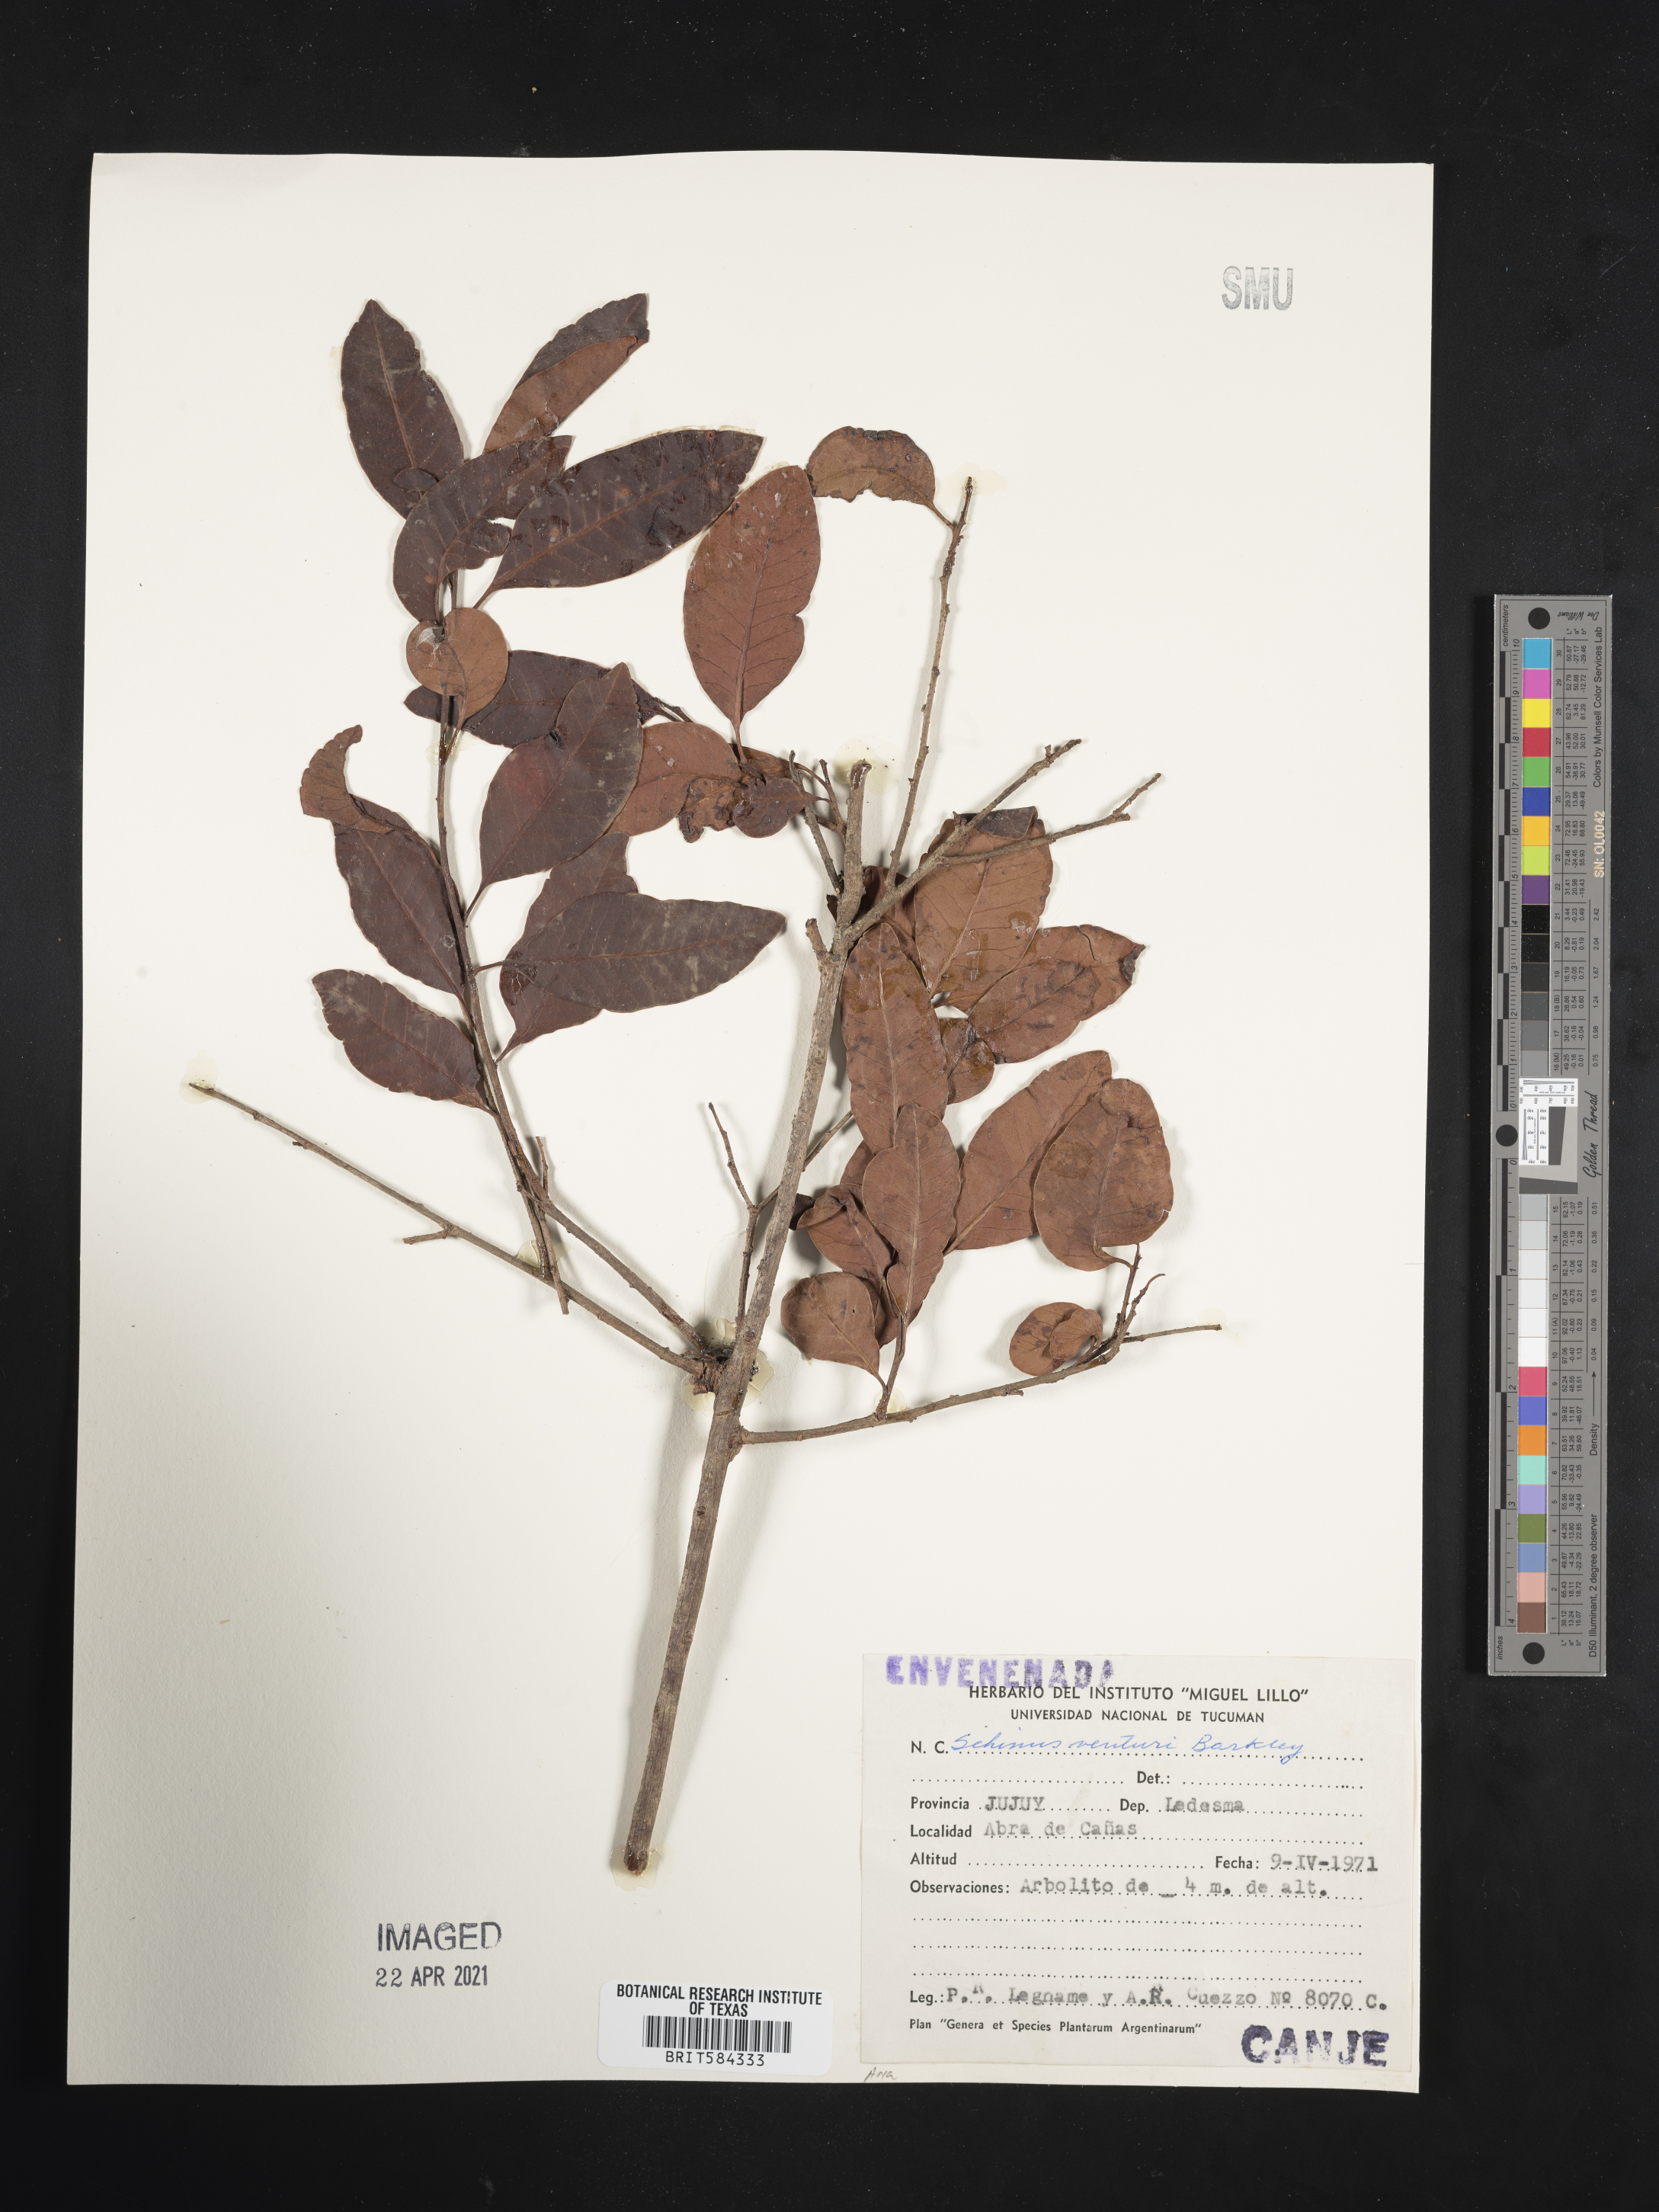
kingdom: Plantae
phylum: Tracheophyta
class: Magnoliopsida
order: Sapindales
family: Anacardiaceae
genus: Schinus
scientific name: Schinus venturii
